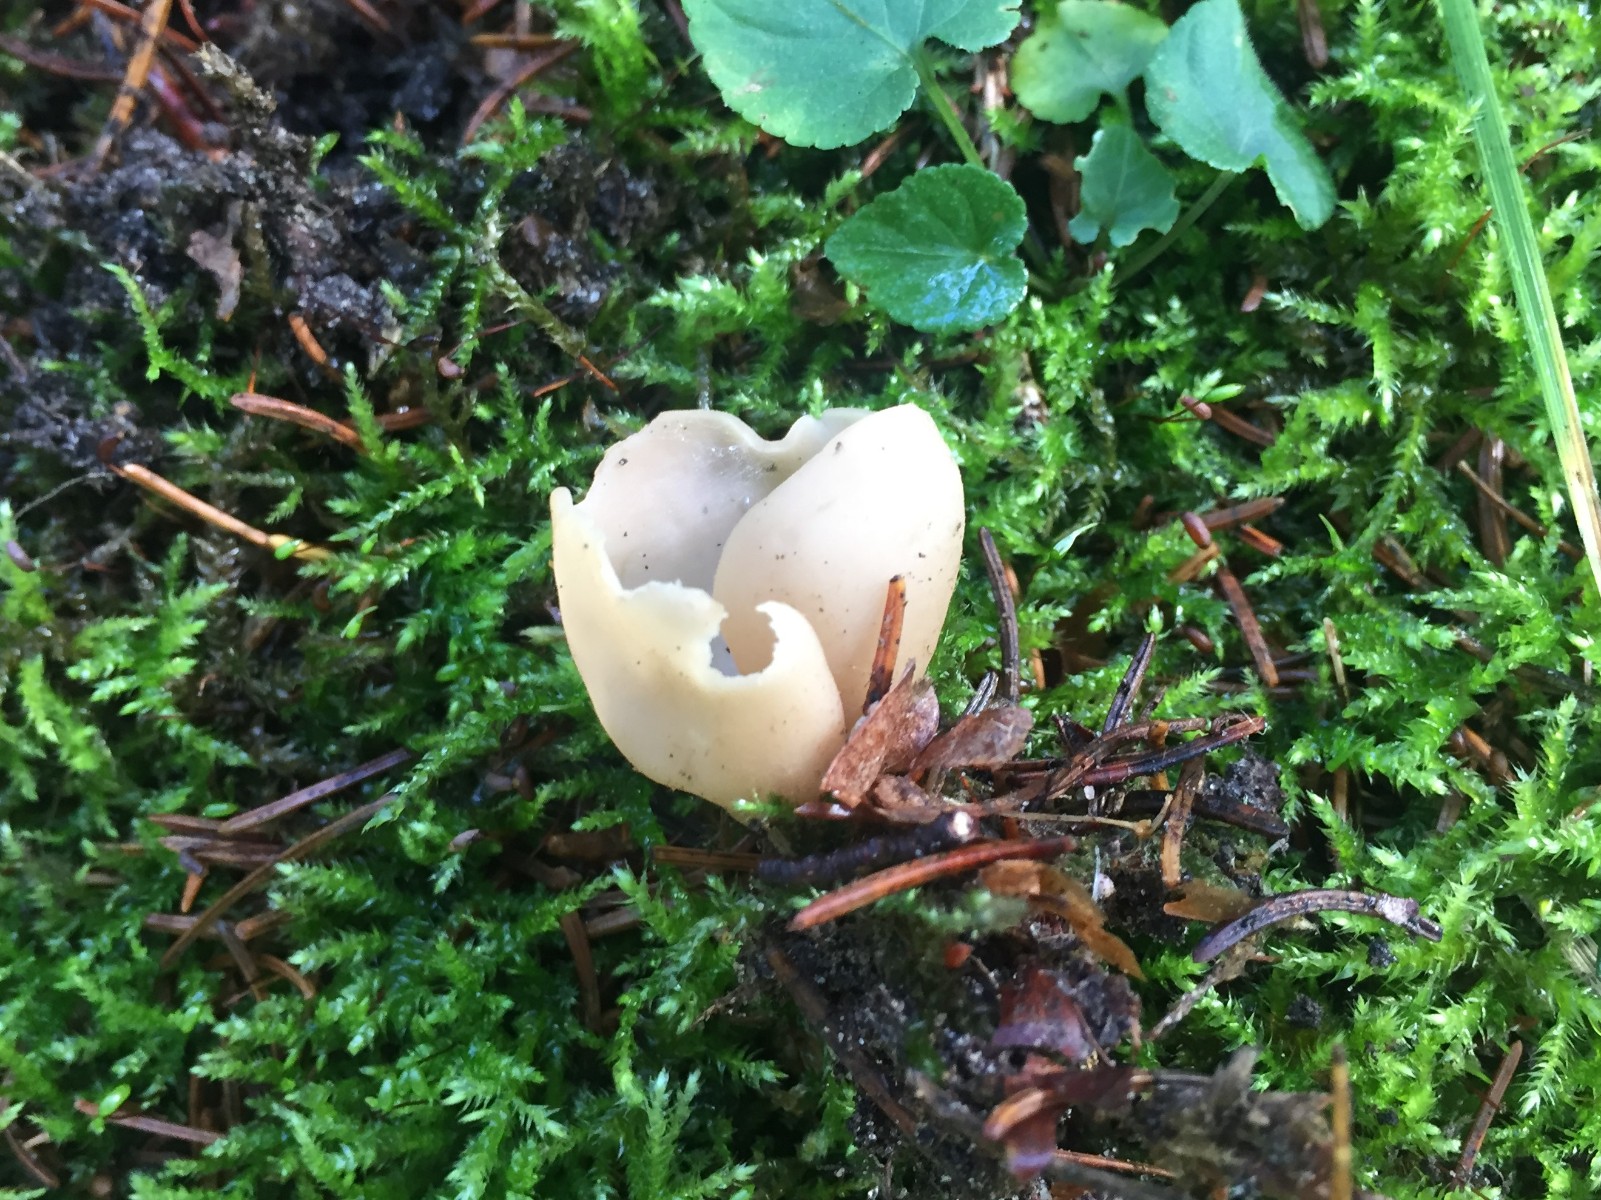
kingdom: Fungi
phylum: Ascomycota
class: Pezizomycetes
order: Pezizales
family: Otideaceae
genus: Otidea
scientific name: Otidea
